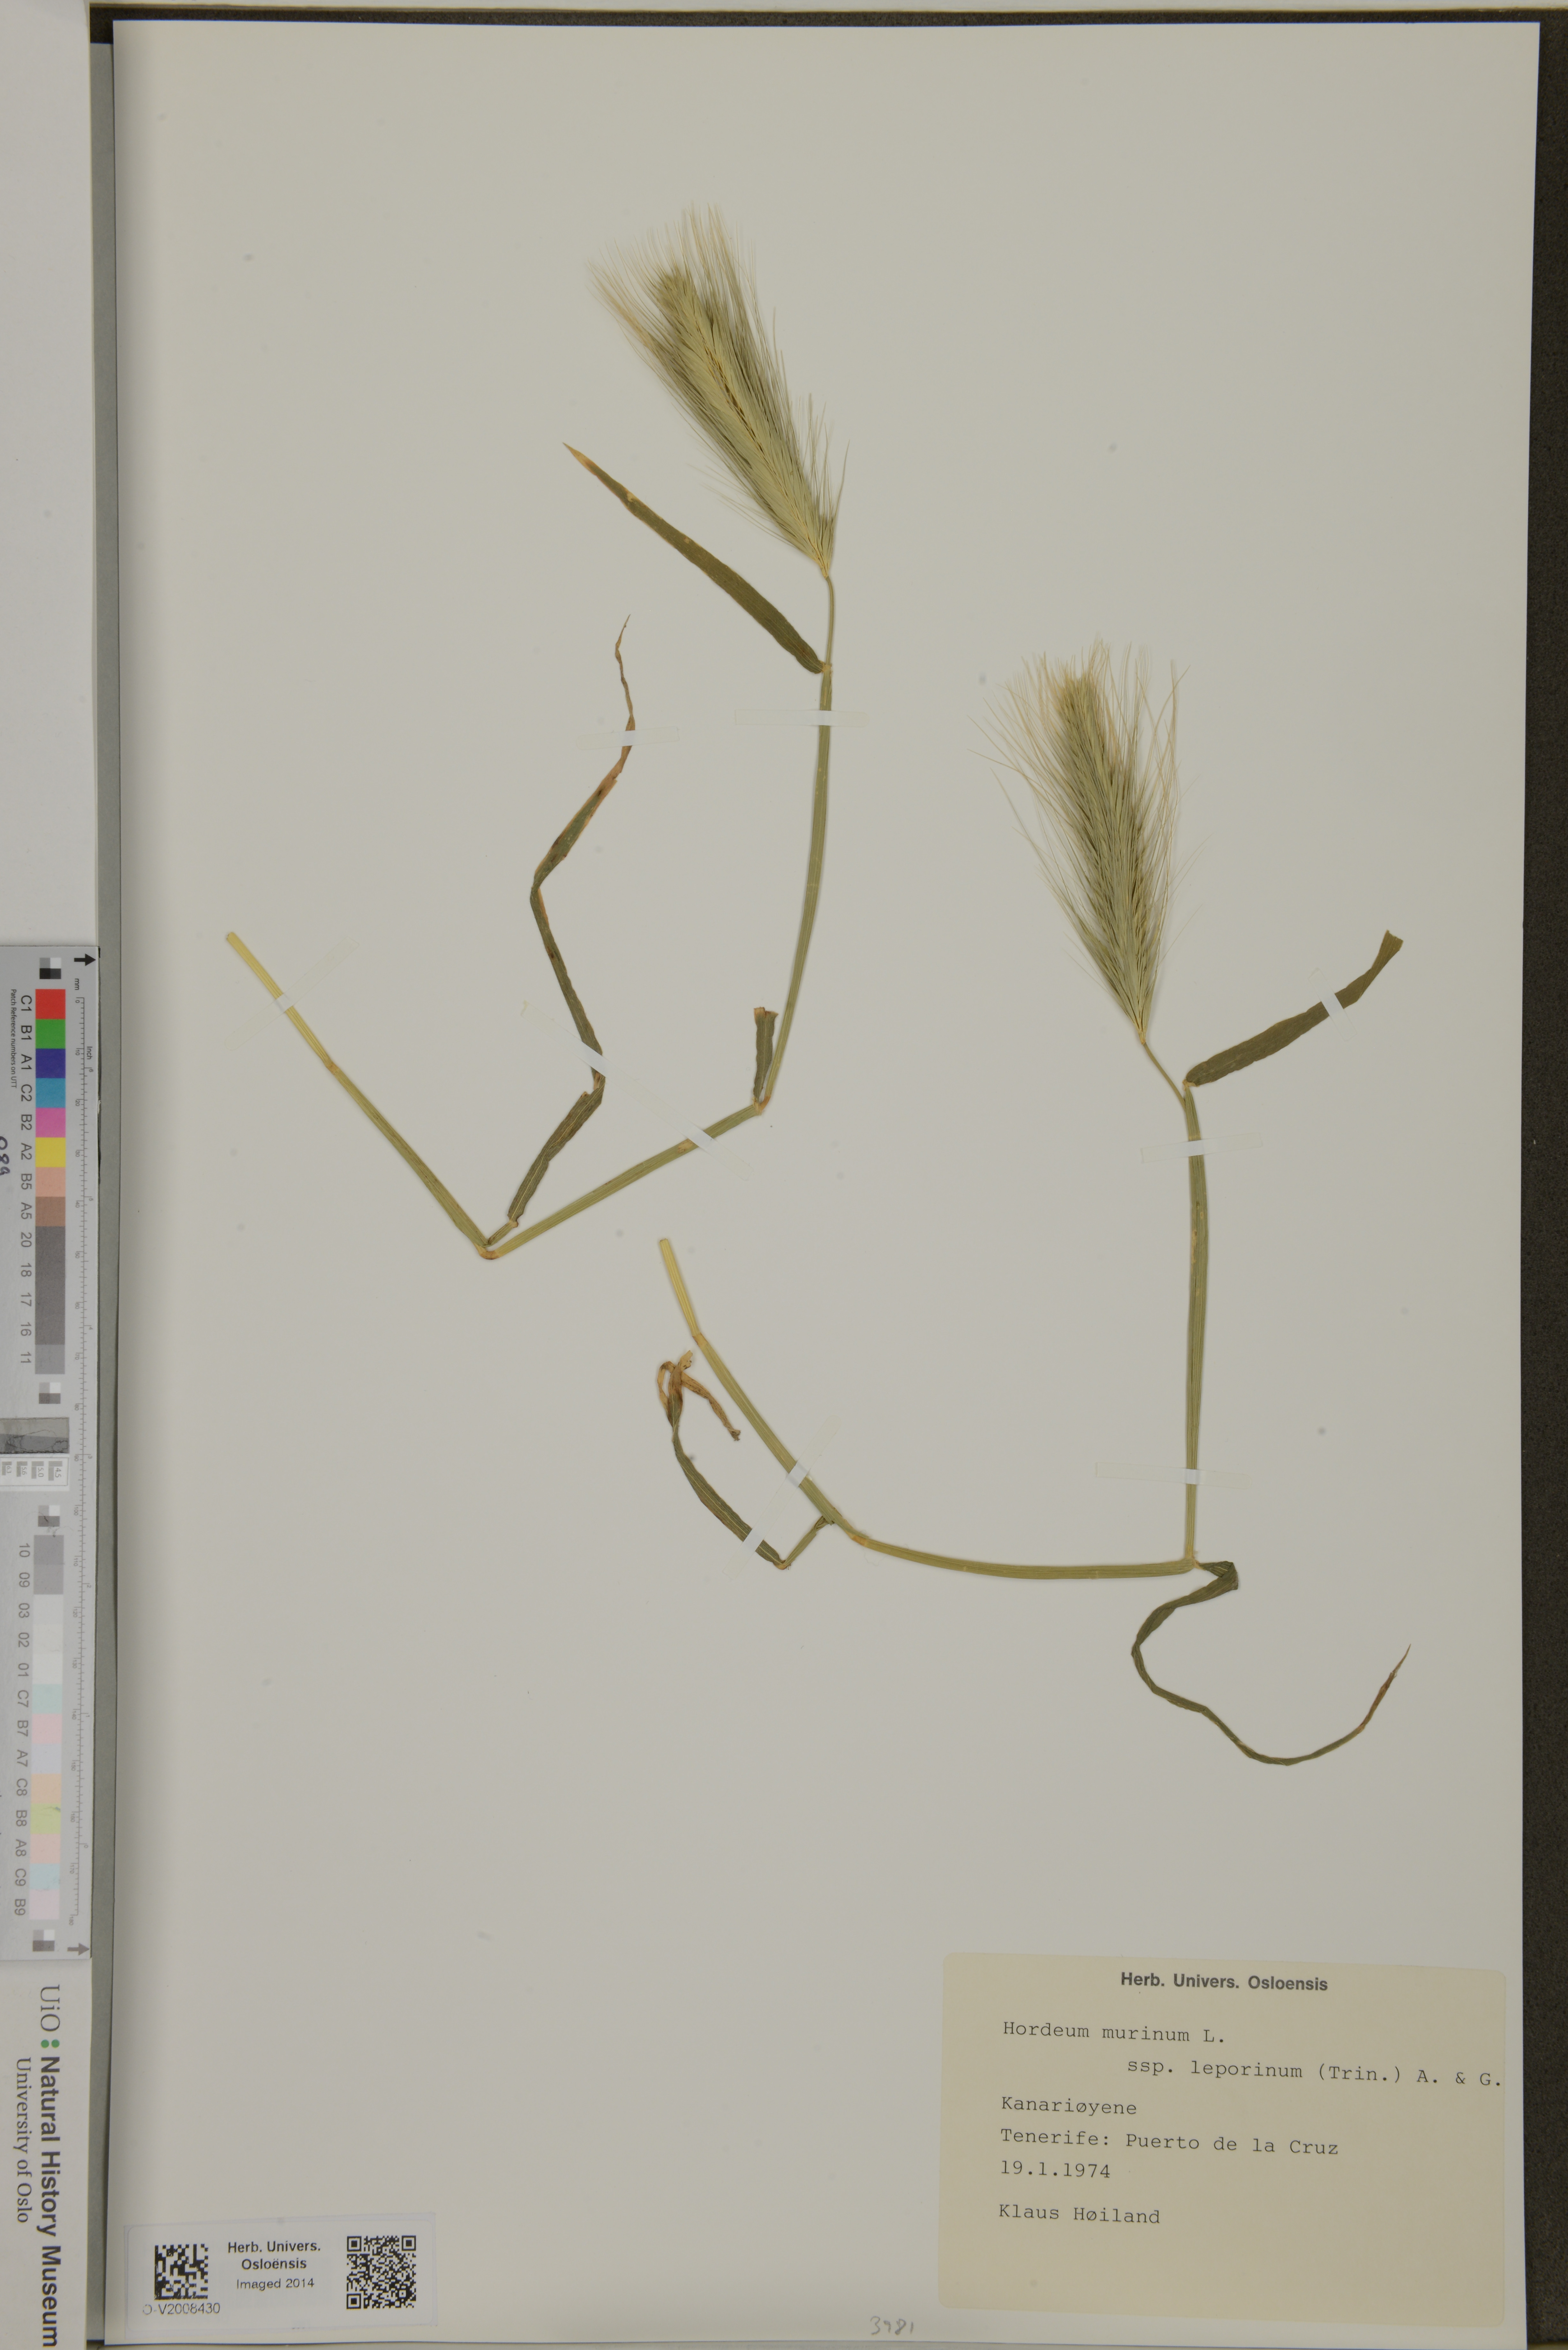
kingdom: Plantae
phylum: Tracheophyta
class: Liliopsida
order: Poales
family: Poaceae
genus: Hordeum
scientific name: Hordeum murinum
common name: Wall barley
